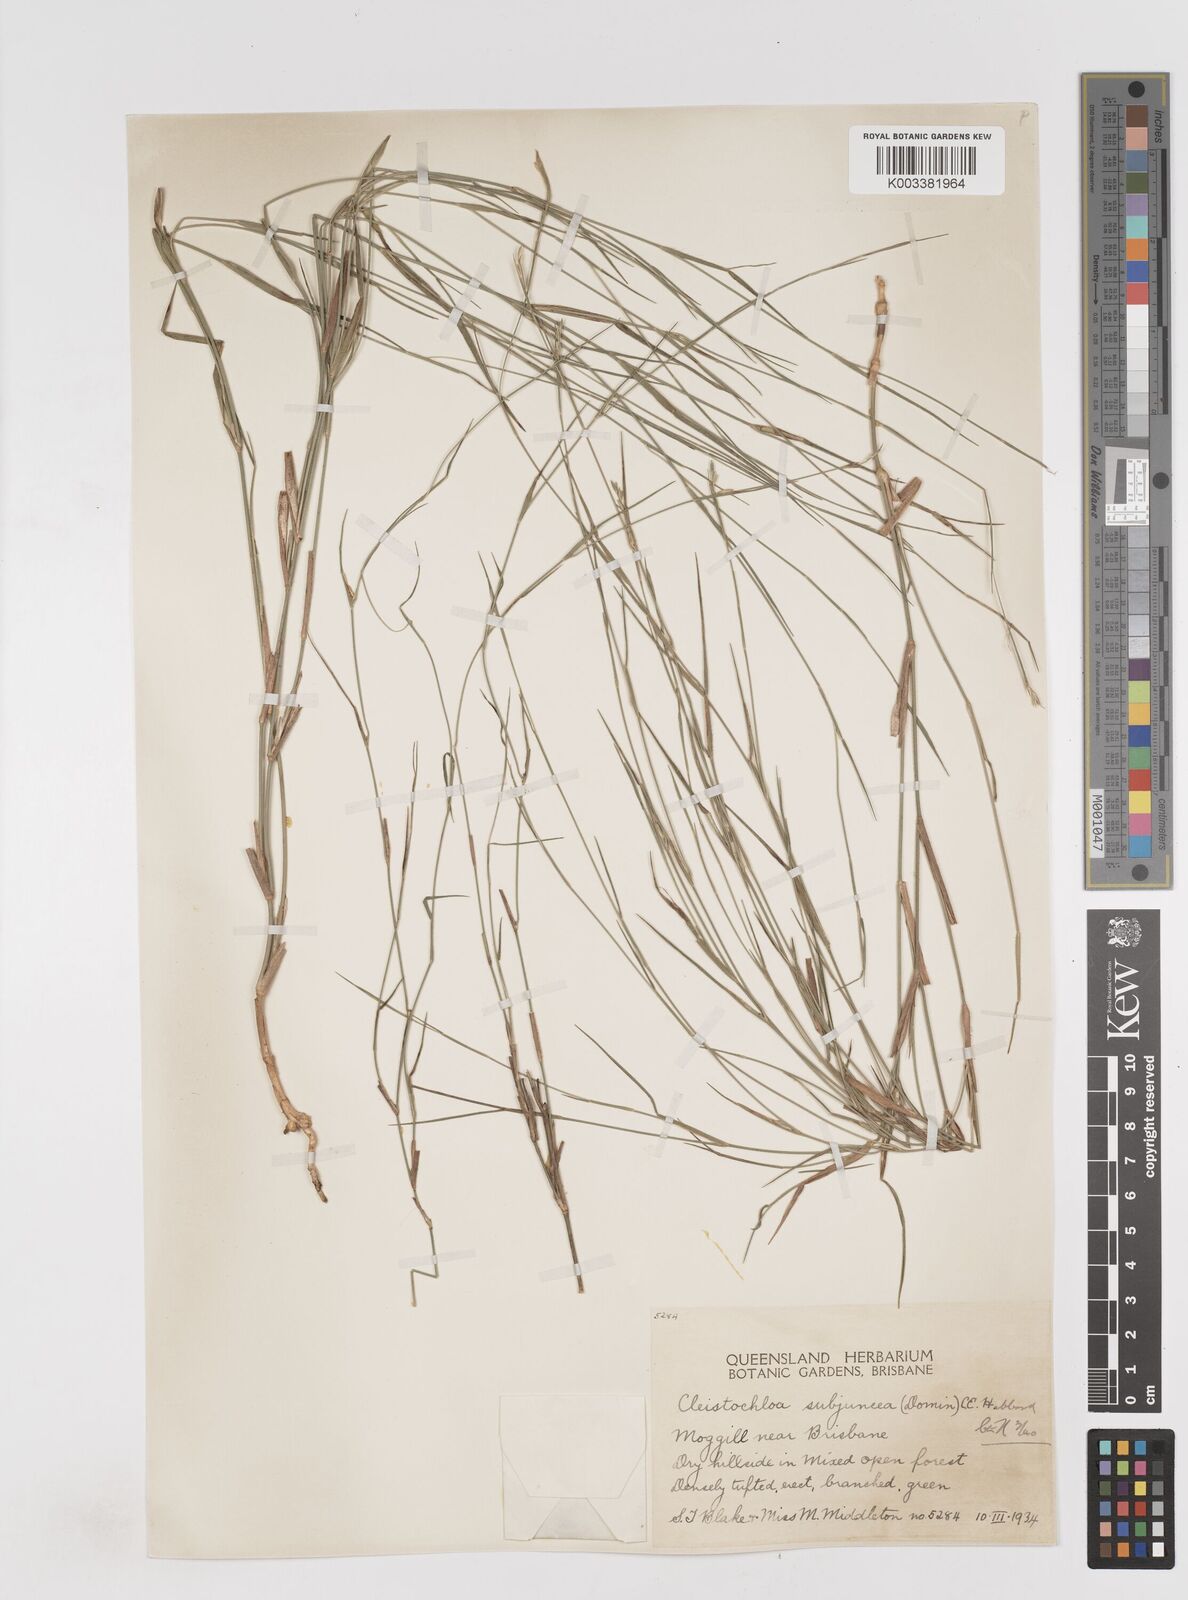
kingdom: Plantae
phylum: Tracheophyta
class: Liliopsida
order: Poales
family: Poaceae
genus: Cleistochloa
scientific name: Cleistochloa subjuncea
